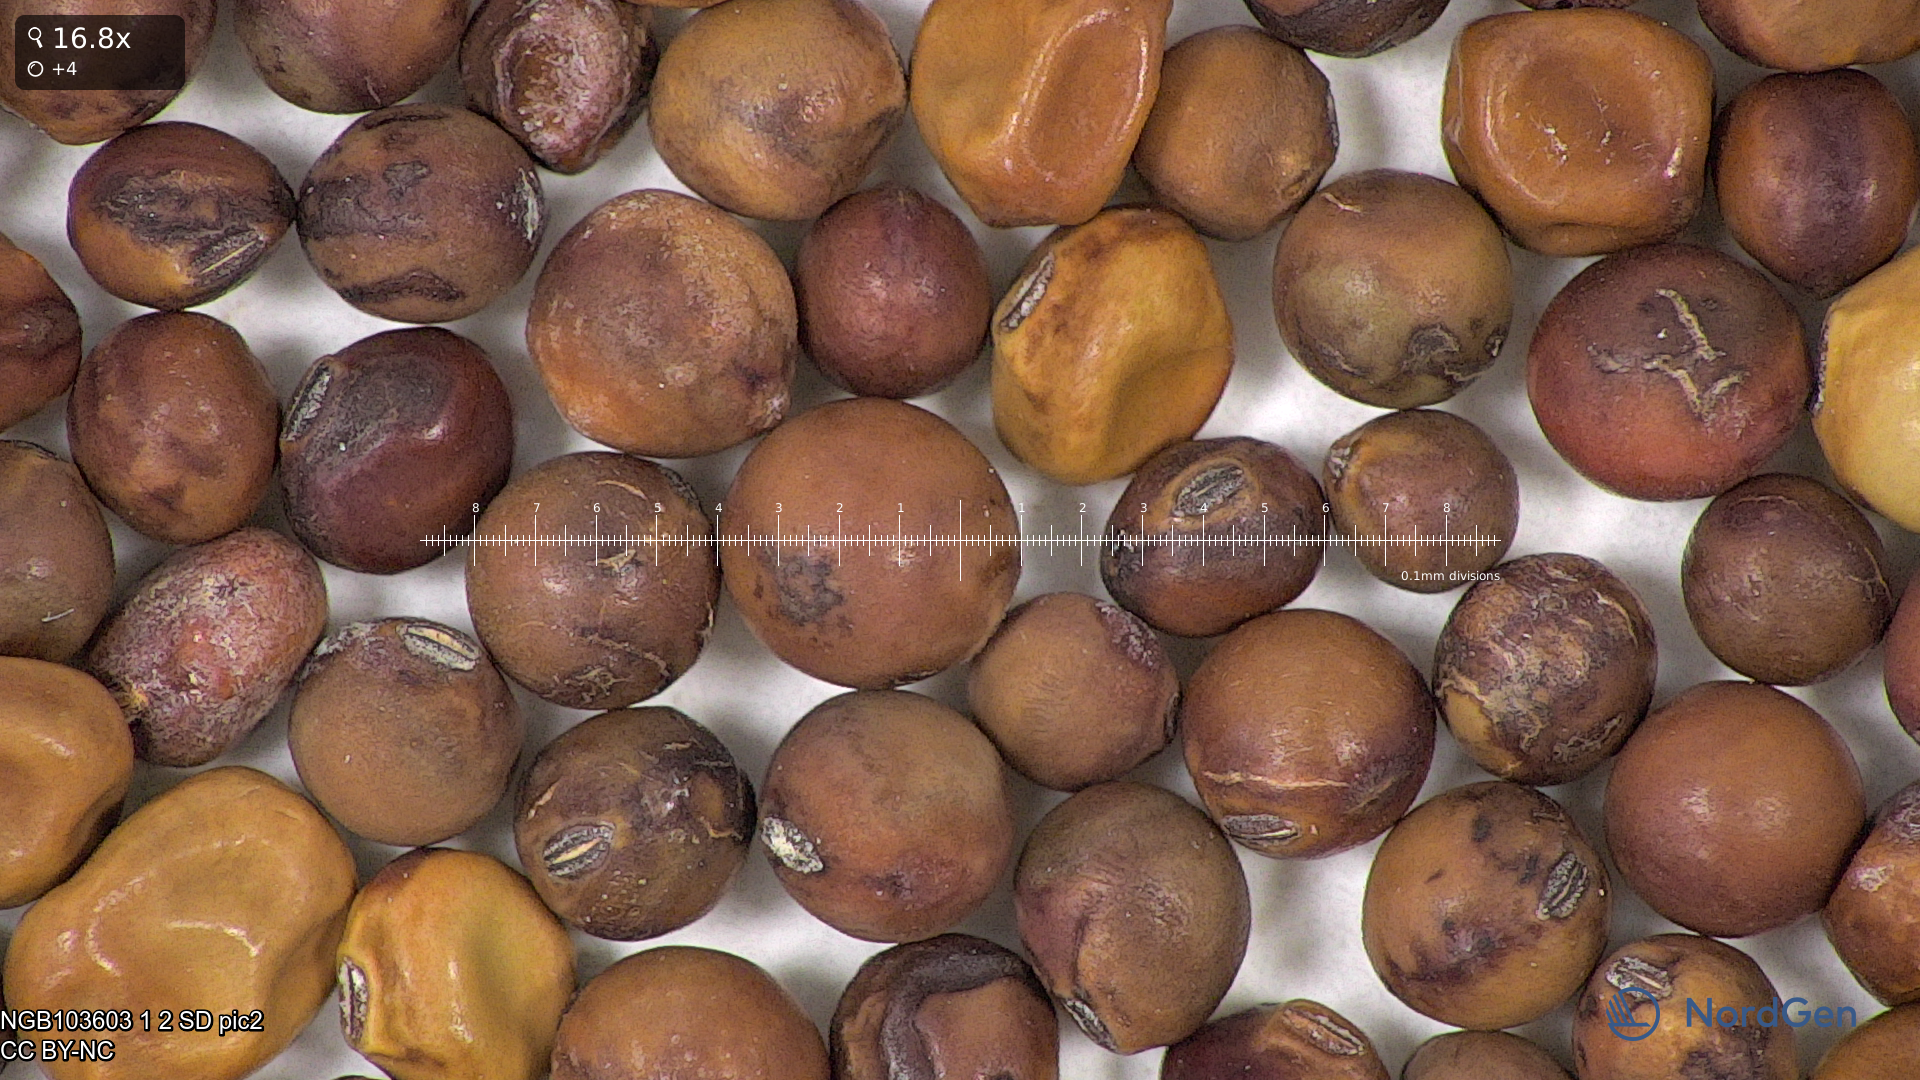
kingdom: Plantae
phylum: Tracheophyta
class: Magnoliopsida
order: Fabales
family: Fabaceae
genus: Lathyrus
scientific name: Lathyrus oleraceus
